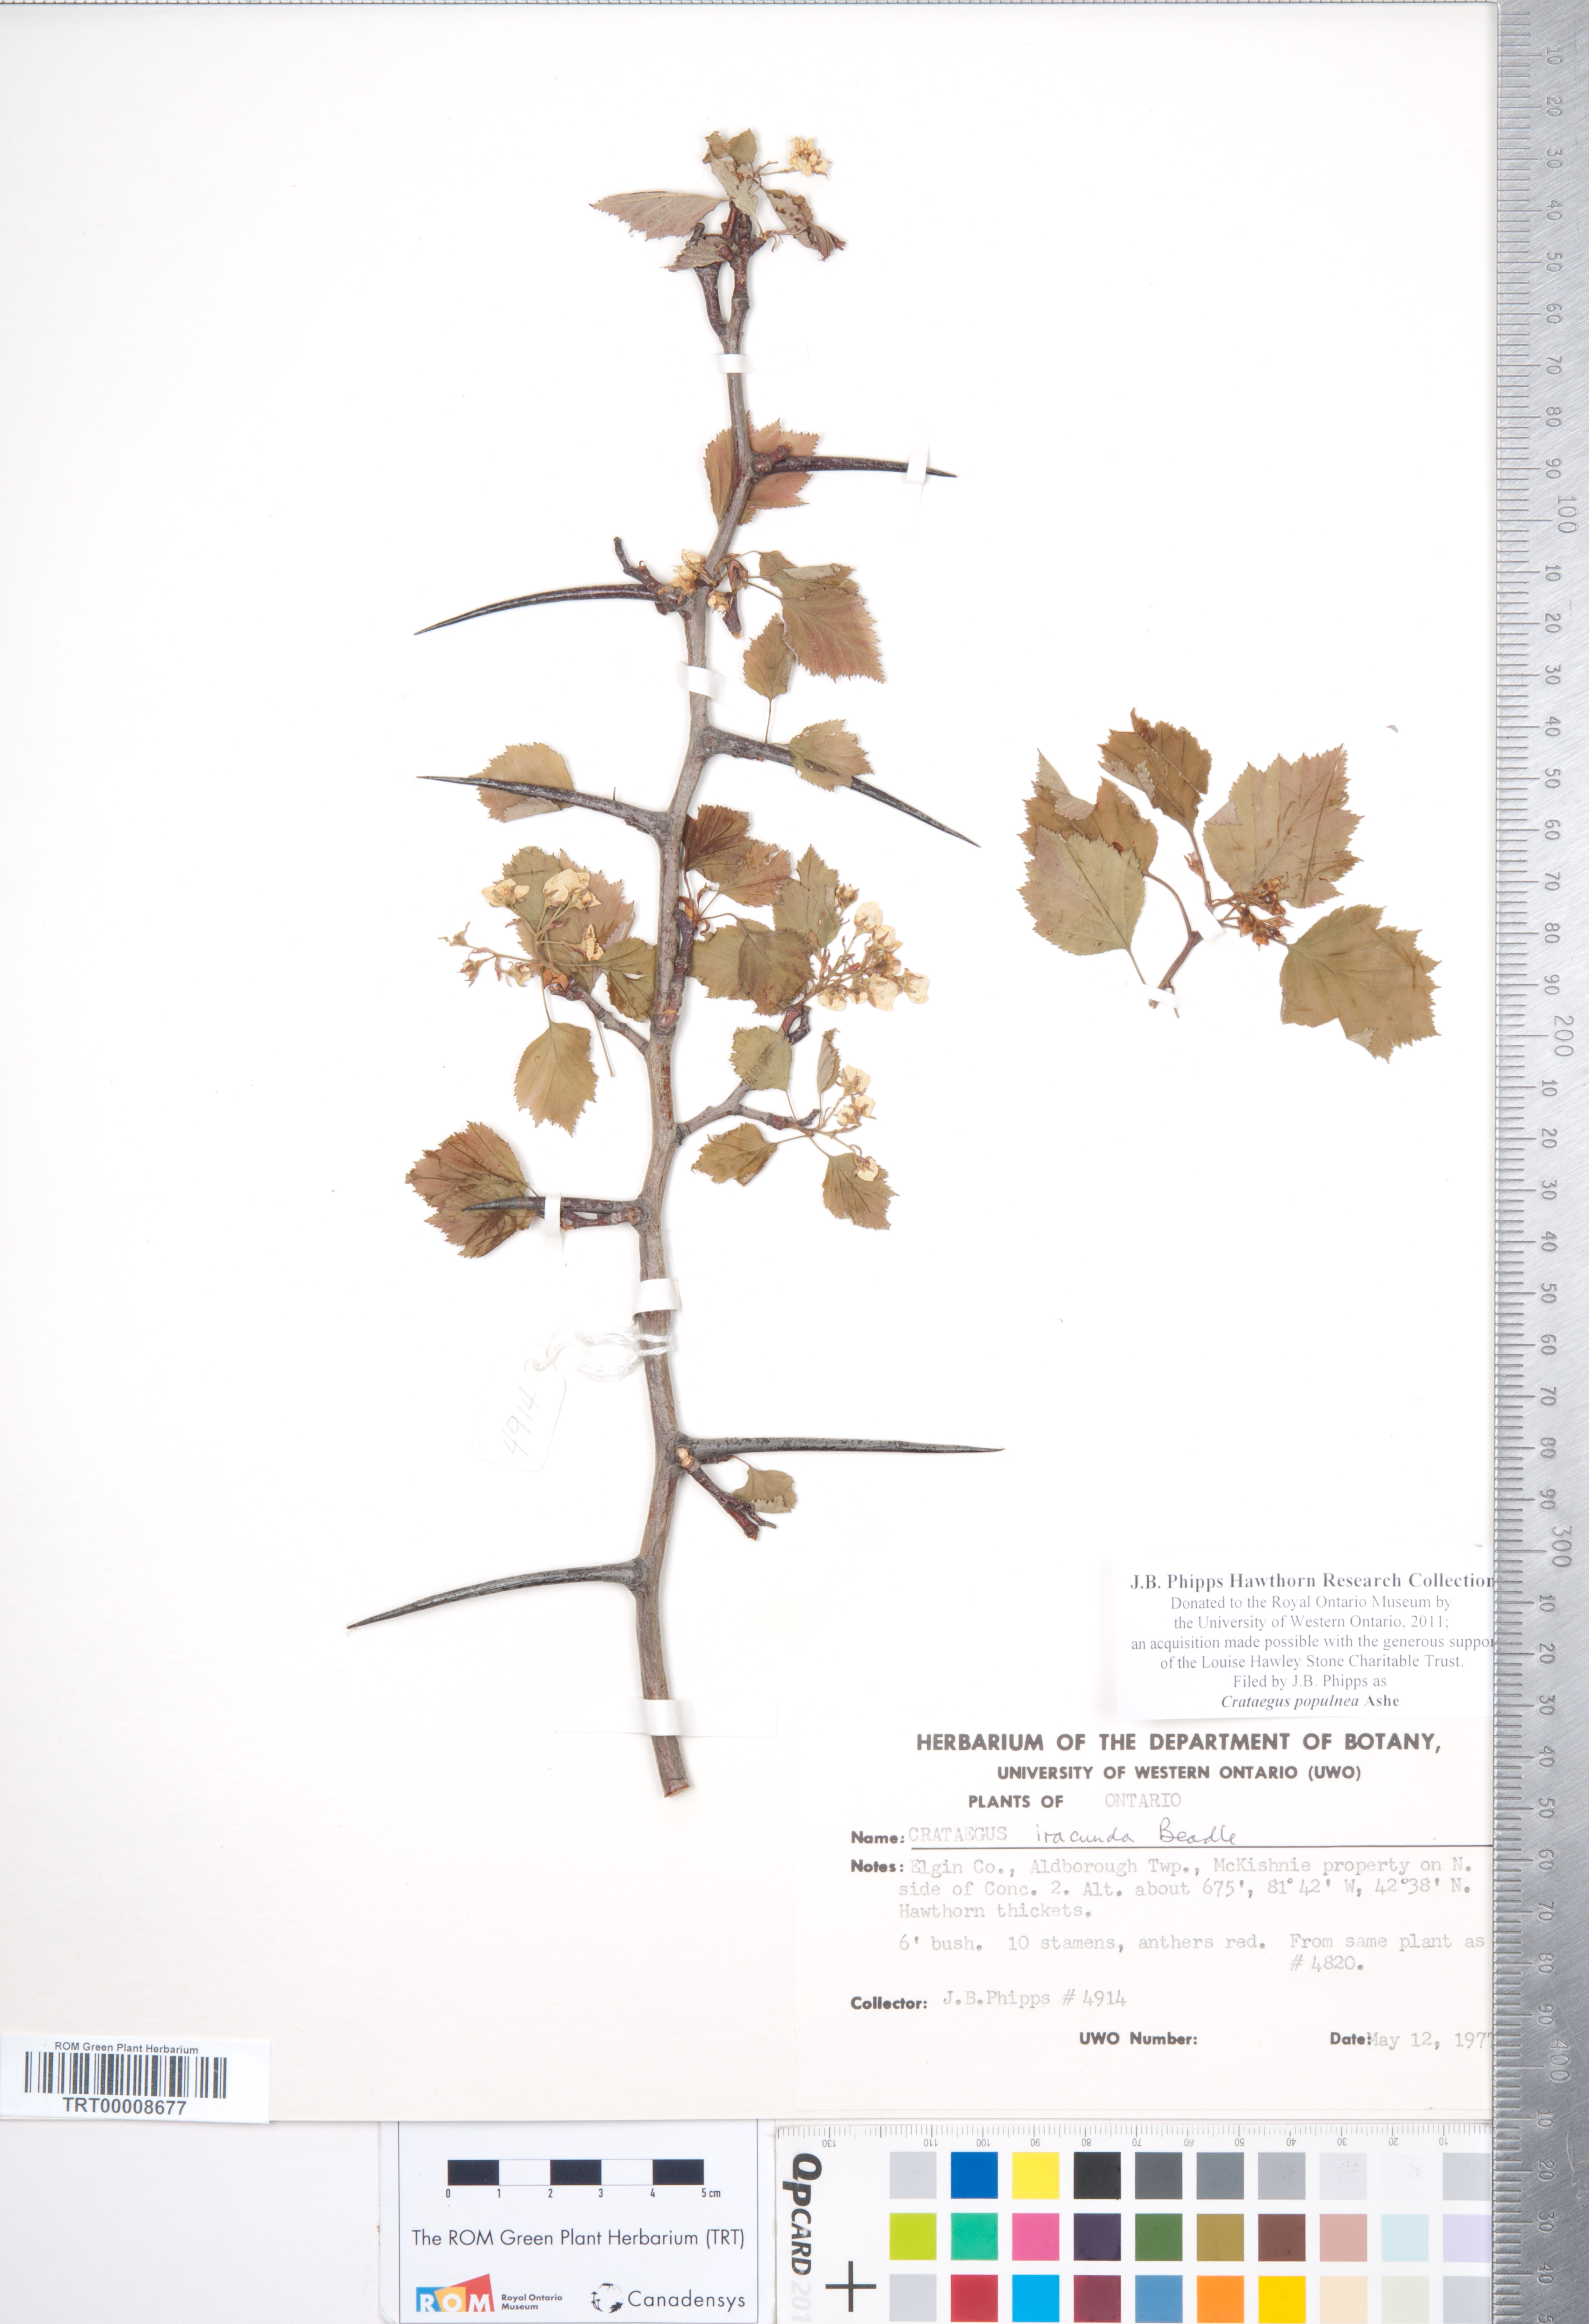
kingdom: Plantae
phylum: Tracheophyta
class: Magnoliopsida
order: Rosales
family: Rosaceae
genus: Crataegus
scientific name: Crataegus populnea
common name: Adorned hawthorn
